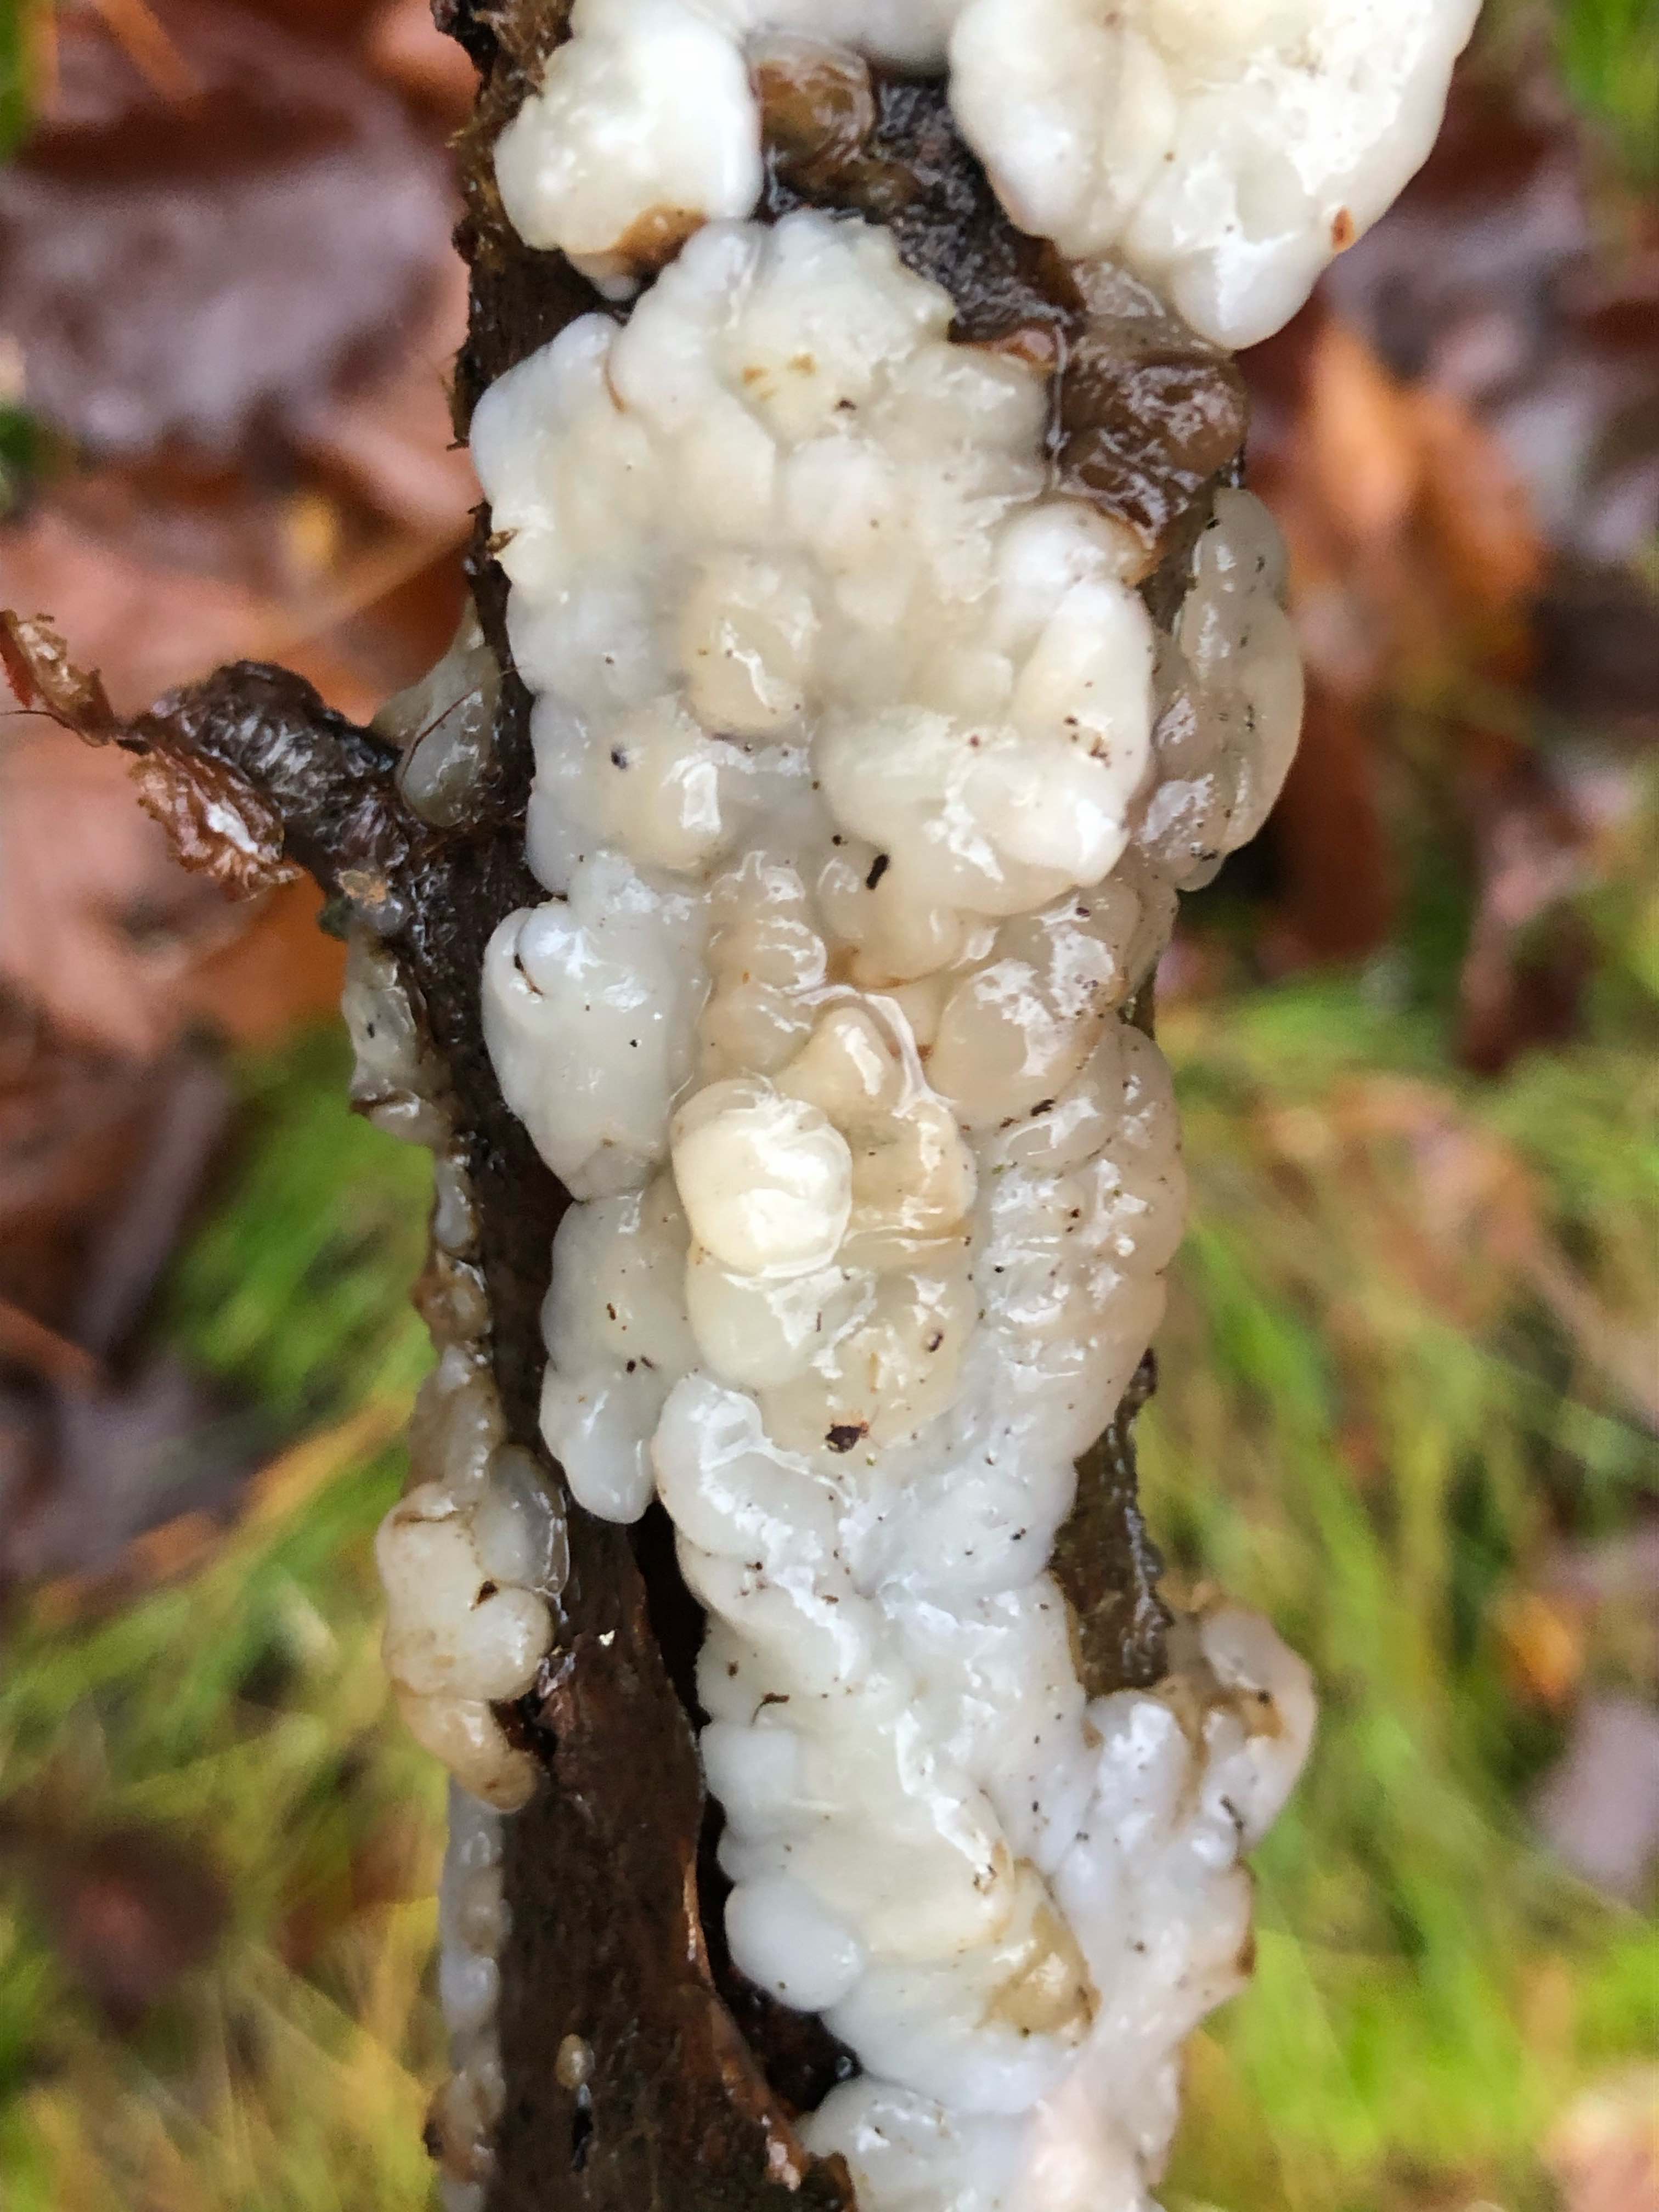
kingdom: Fungi
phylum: Basidiomycota
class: Agaricomycetes
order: Auriculariales
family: Auriculariaceae
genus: Exidia
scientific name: Exidia thuretiana
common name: hvidlig bævretop
